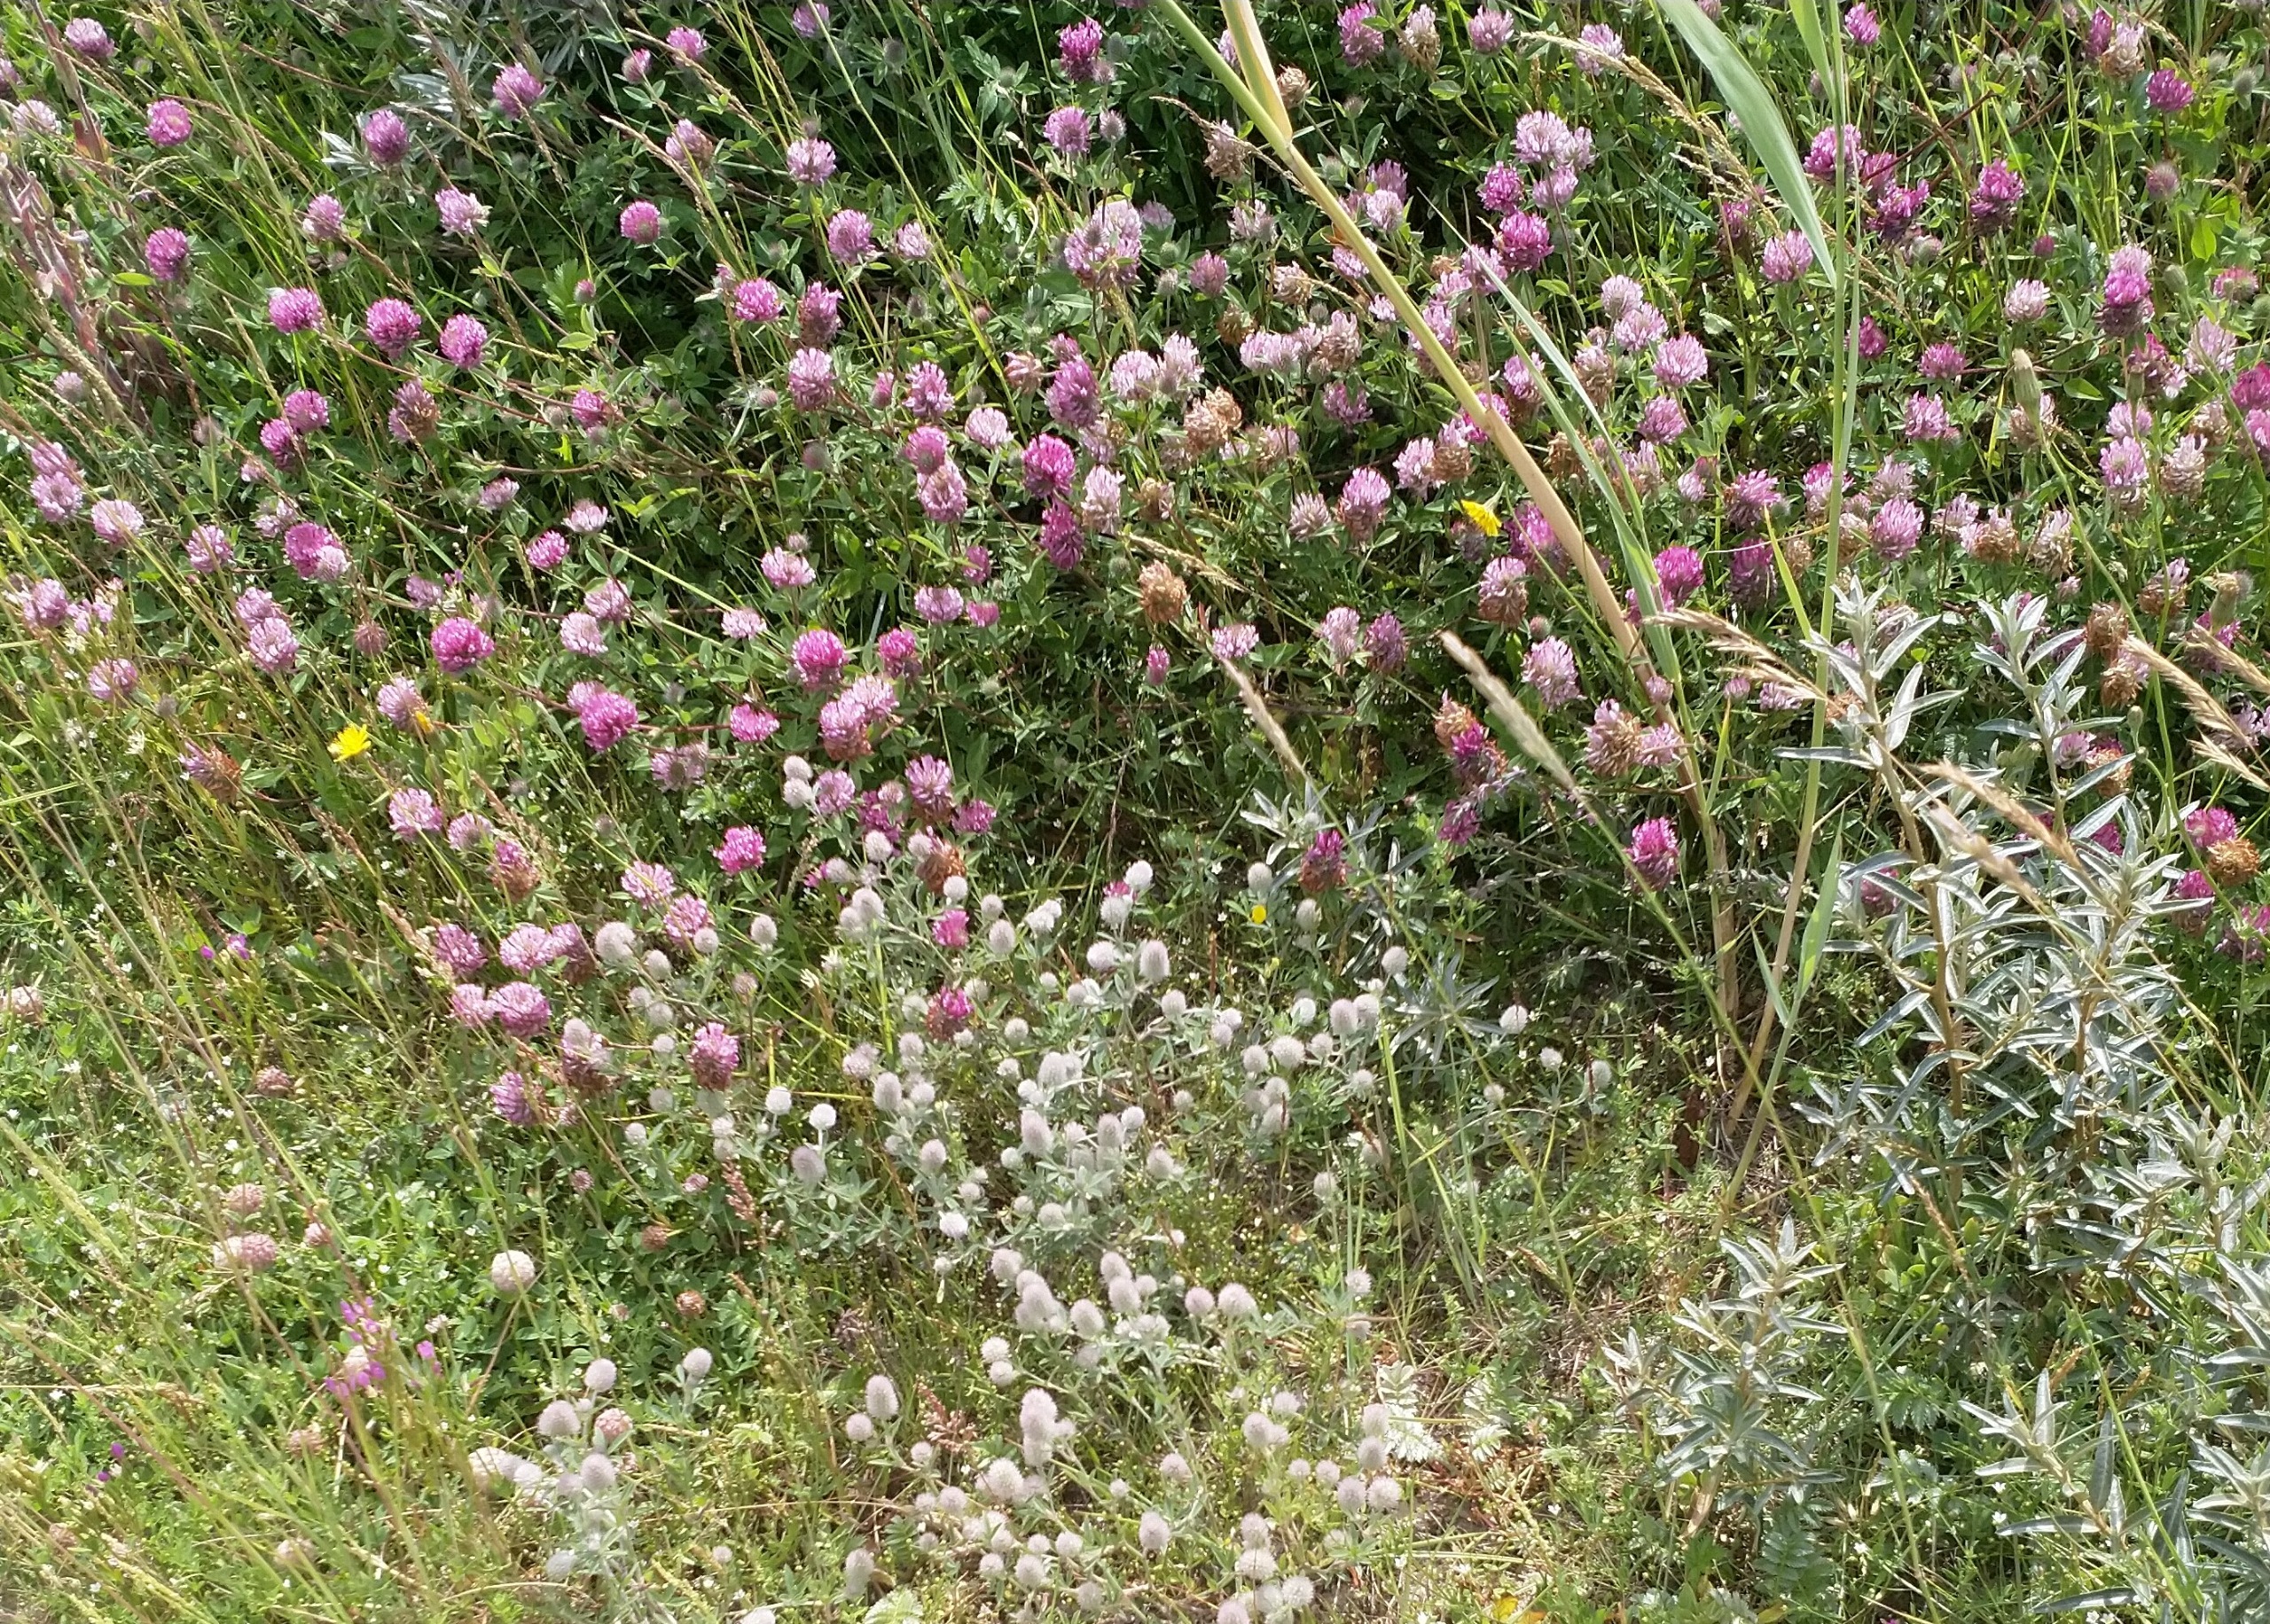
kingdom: Plantae
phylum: Tracheophyta
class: Magnoliopsida
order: Fabales
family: Fabaceae
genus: Trifolium
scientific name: Trifolium arvense
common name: Hare-kløver
